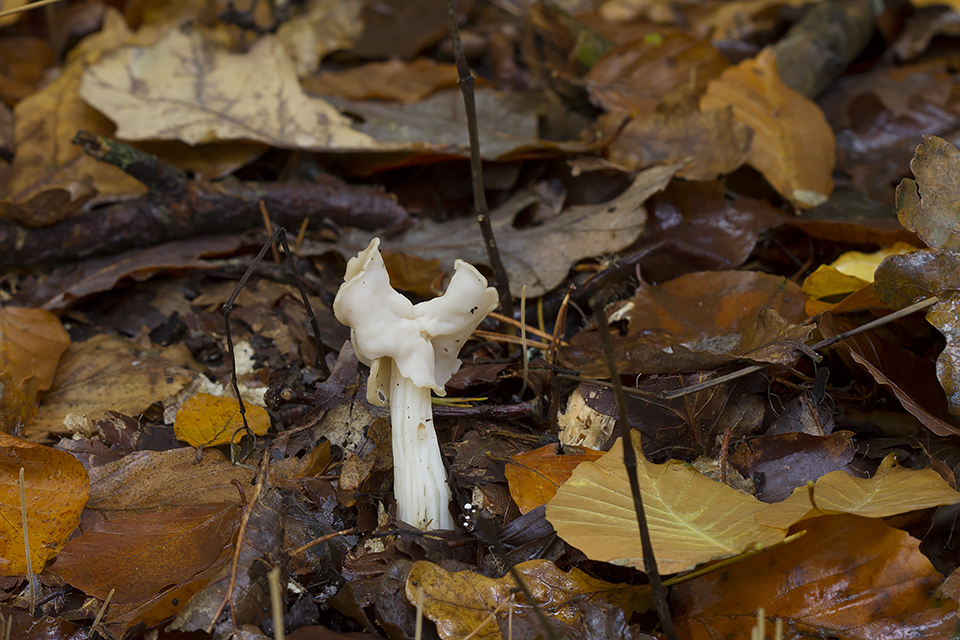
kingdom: Fungi
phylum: Ascomycota
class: Pezizomycetes
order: Pezizales
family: Helvellaceae
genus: Helvella
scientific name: Helvella crispa
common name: kruset foldhat
